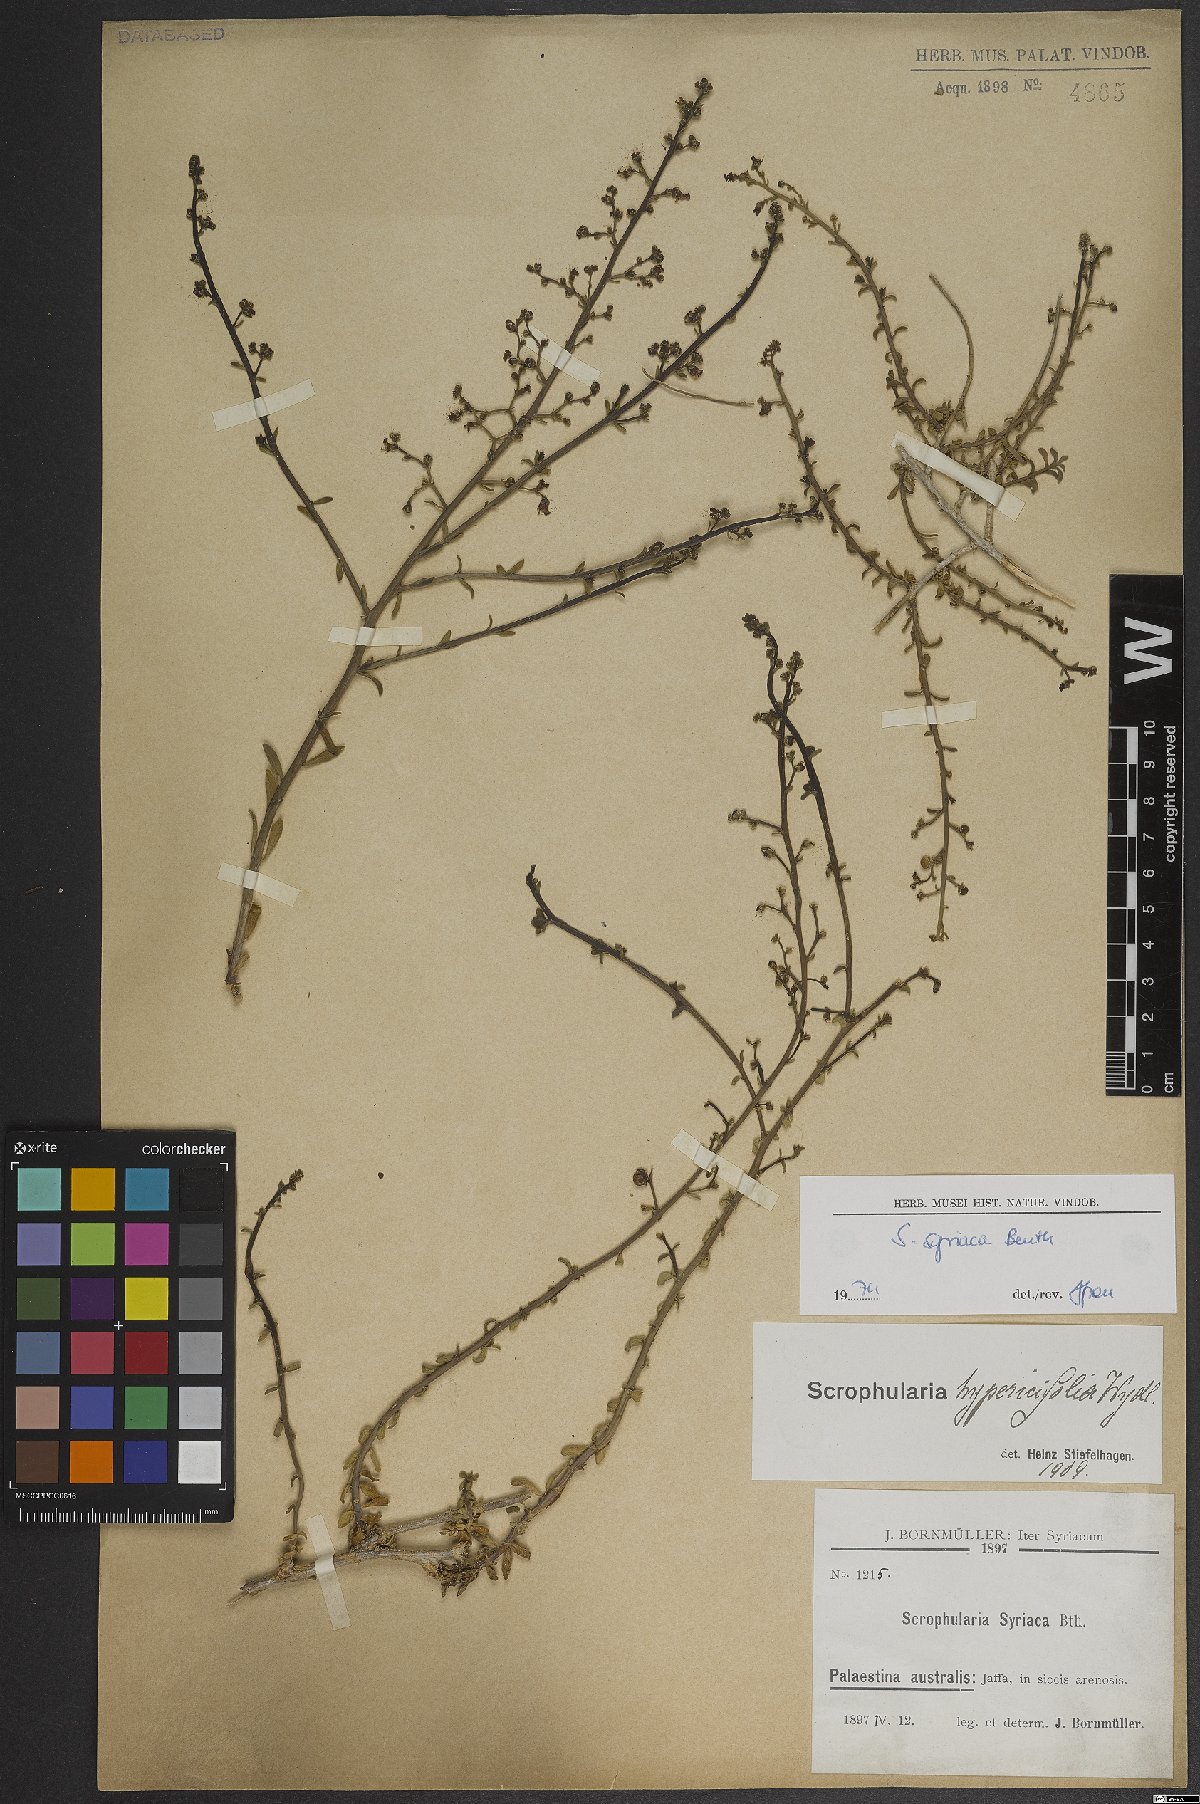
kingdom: Plantae
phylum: Tracheophyta
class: Magnoliopsida
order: Lamiales
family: Scrophulariaceae
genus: Scrophularia
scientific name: Scrophularia hypericifolia
